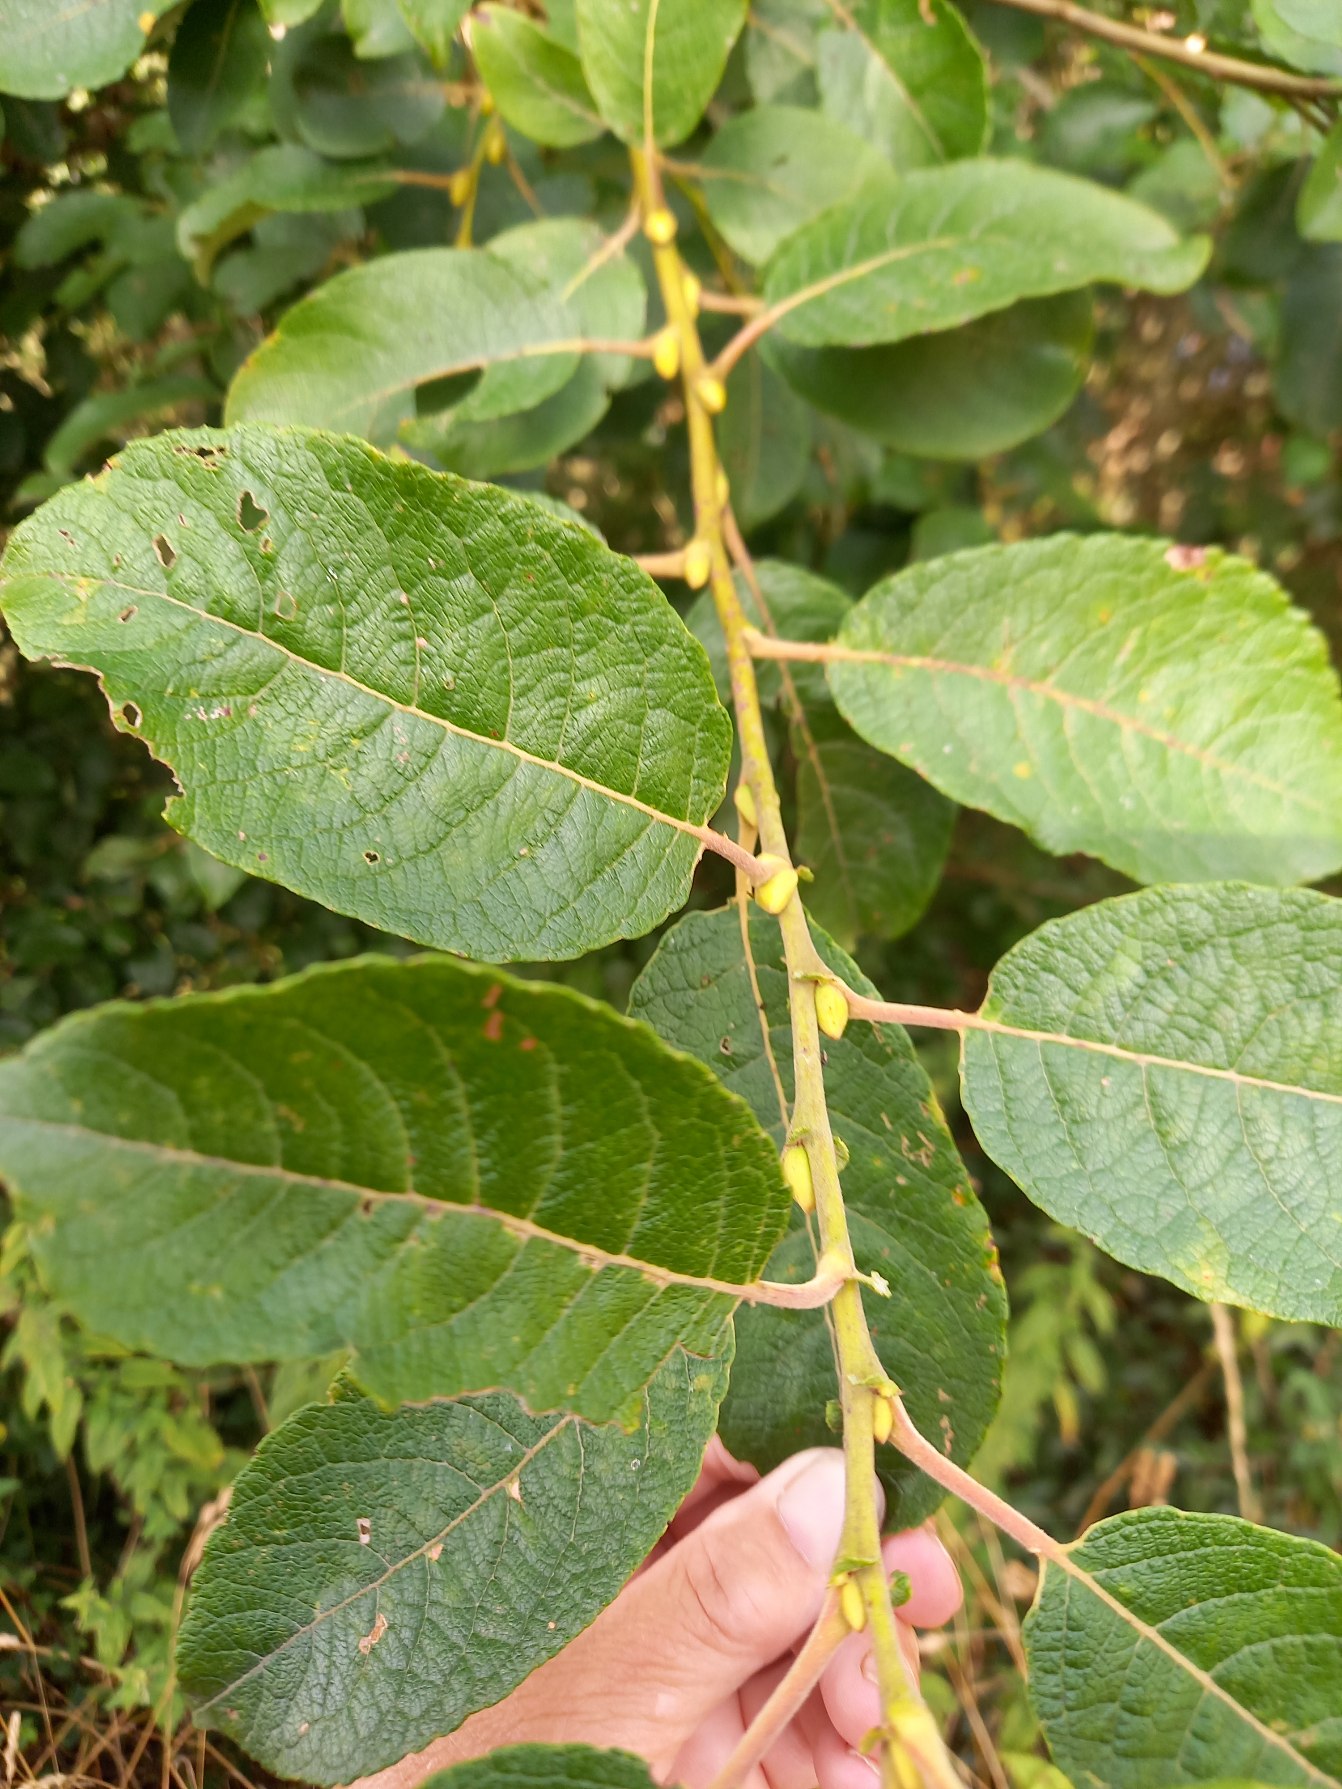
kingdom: Plantae
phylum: Tracheophyta
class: Magnoliopsida
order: Malpighiales
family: Salicaceae
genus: Salix
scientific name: Salix caprea
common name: Selje-pil
